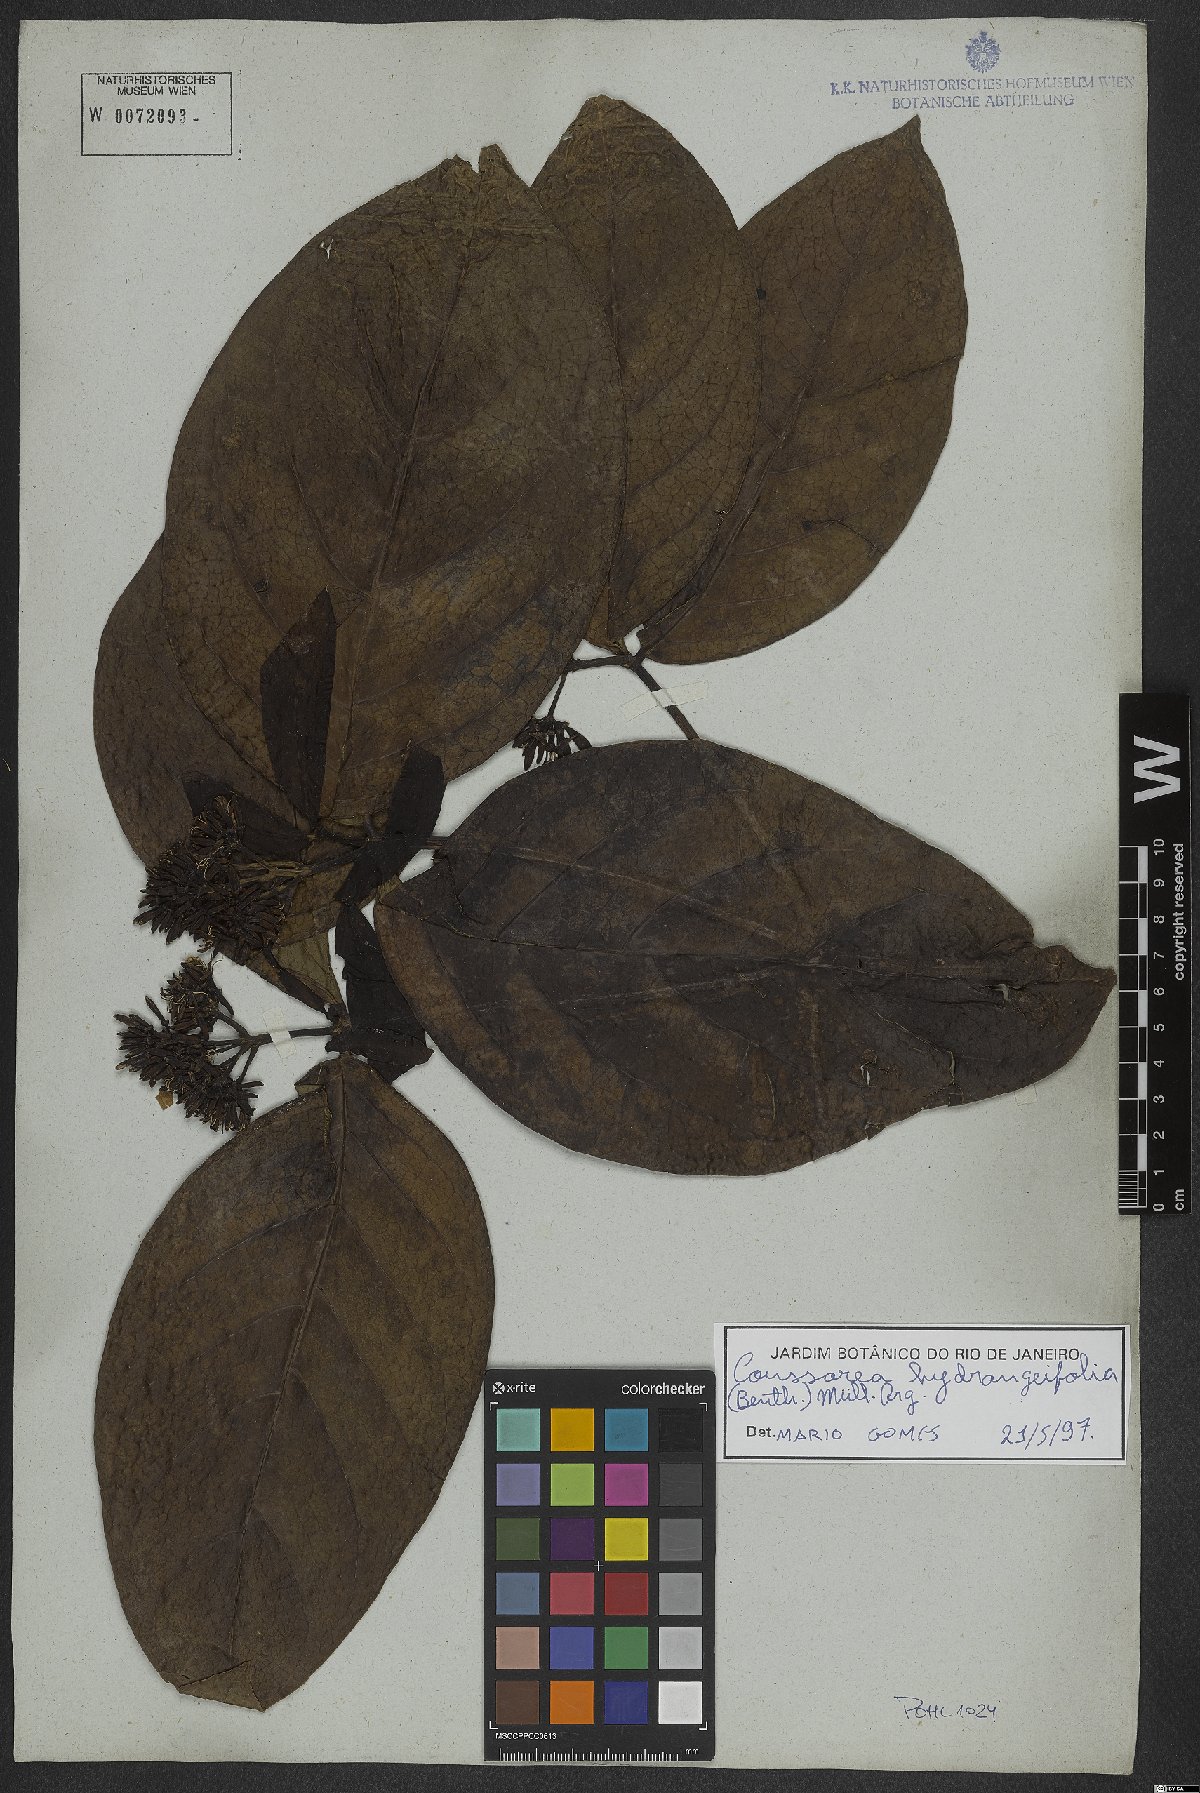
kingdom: Plantae
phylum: Tracheophyta
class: Magnoliopsida
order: Gentianales
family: Rubiaceae
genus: Coussarea
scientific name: Coussarea hydrangeifolia
